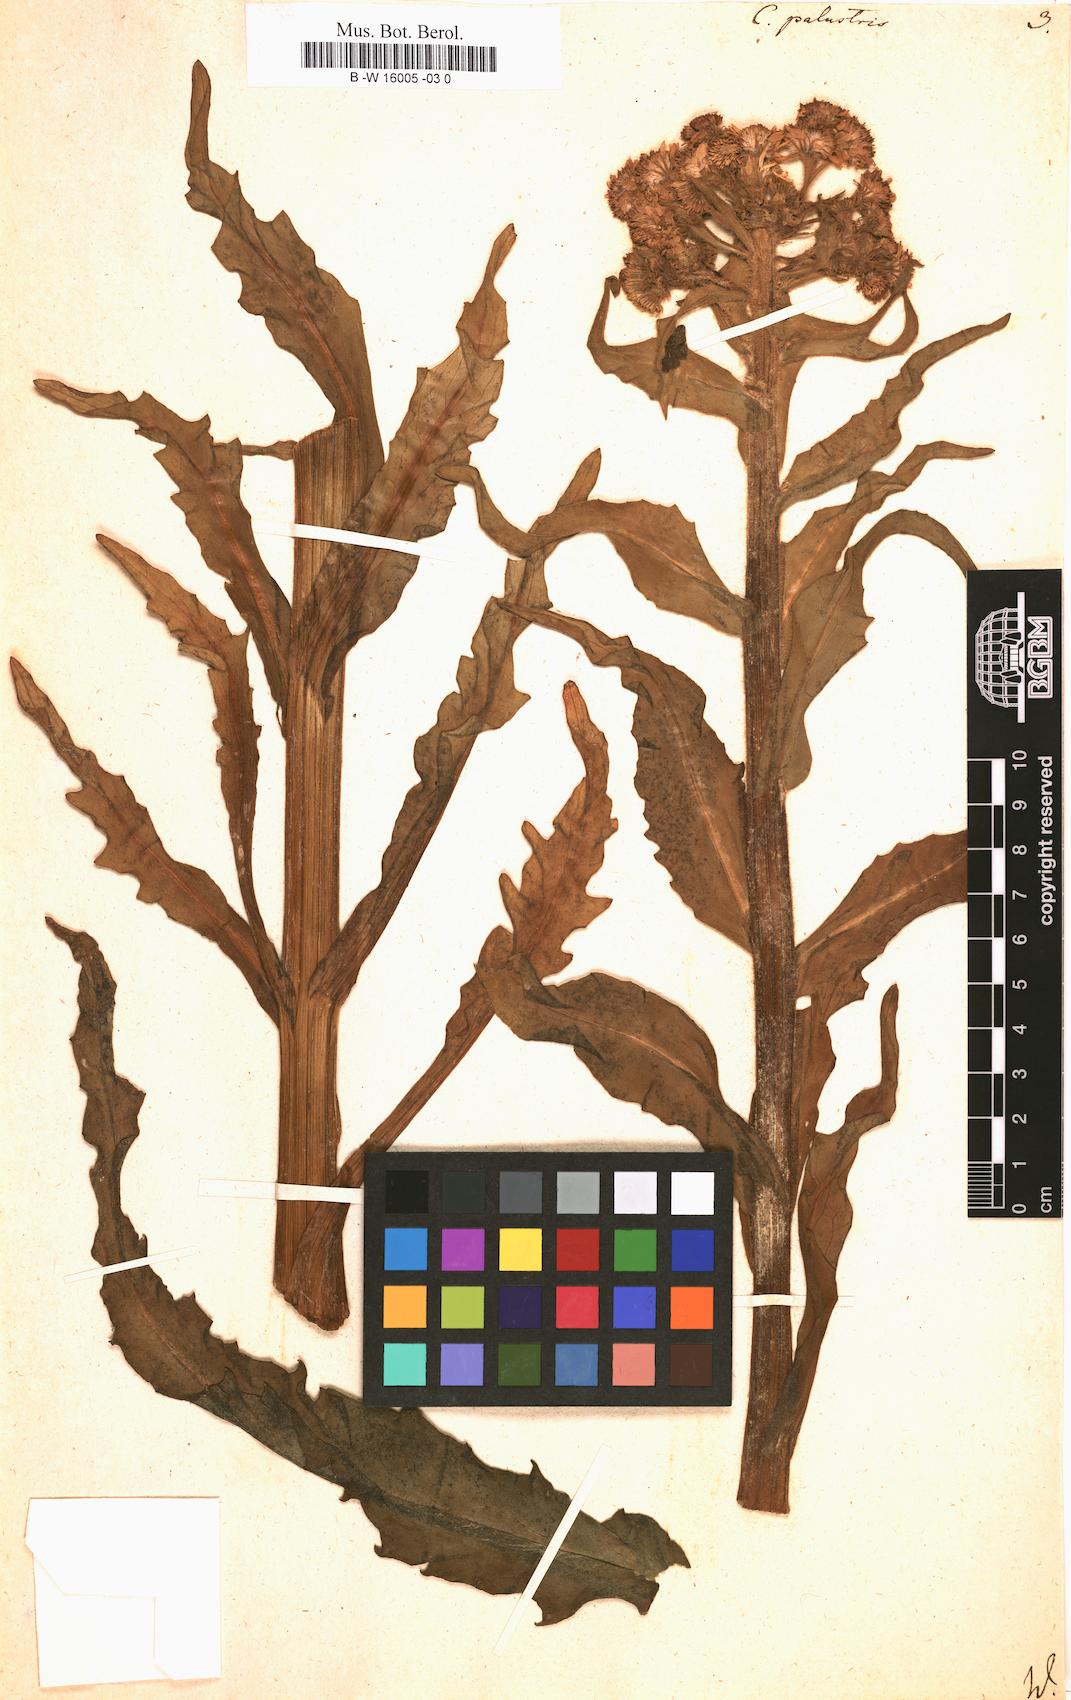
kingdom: Plantae
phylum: Tracheophyta
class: Magnoliopsida
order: Asterales
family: Asteraceae
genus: Tephroseris
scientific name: Tephroseris palustris
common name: Marsh fleawort
